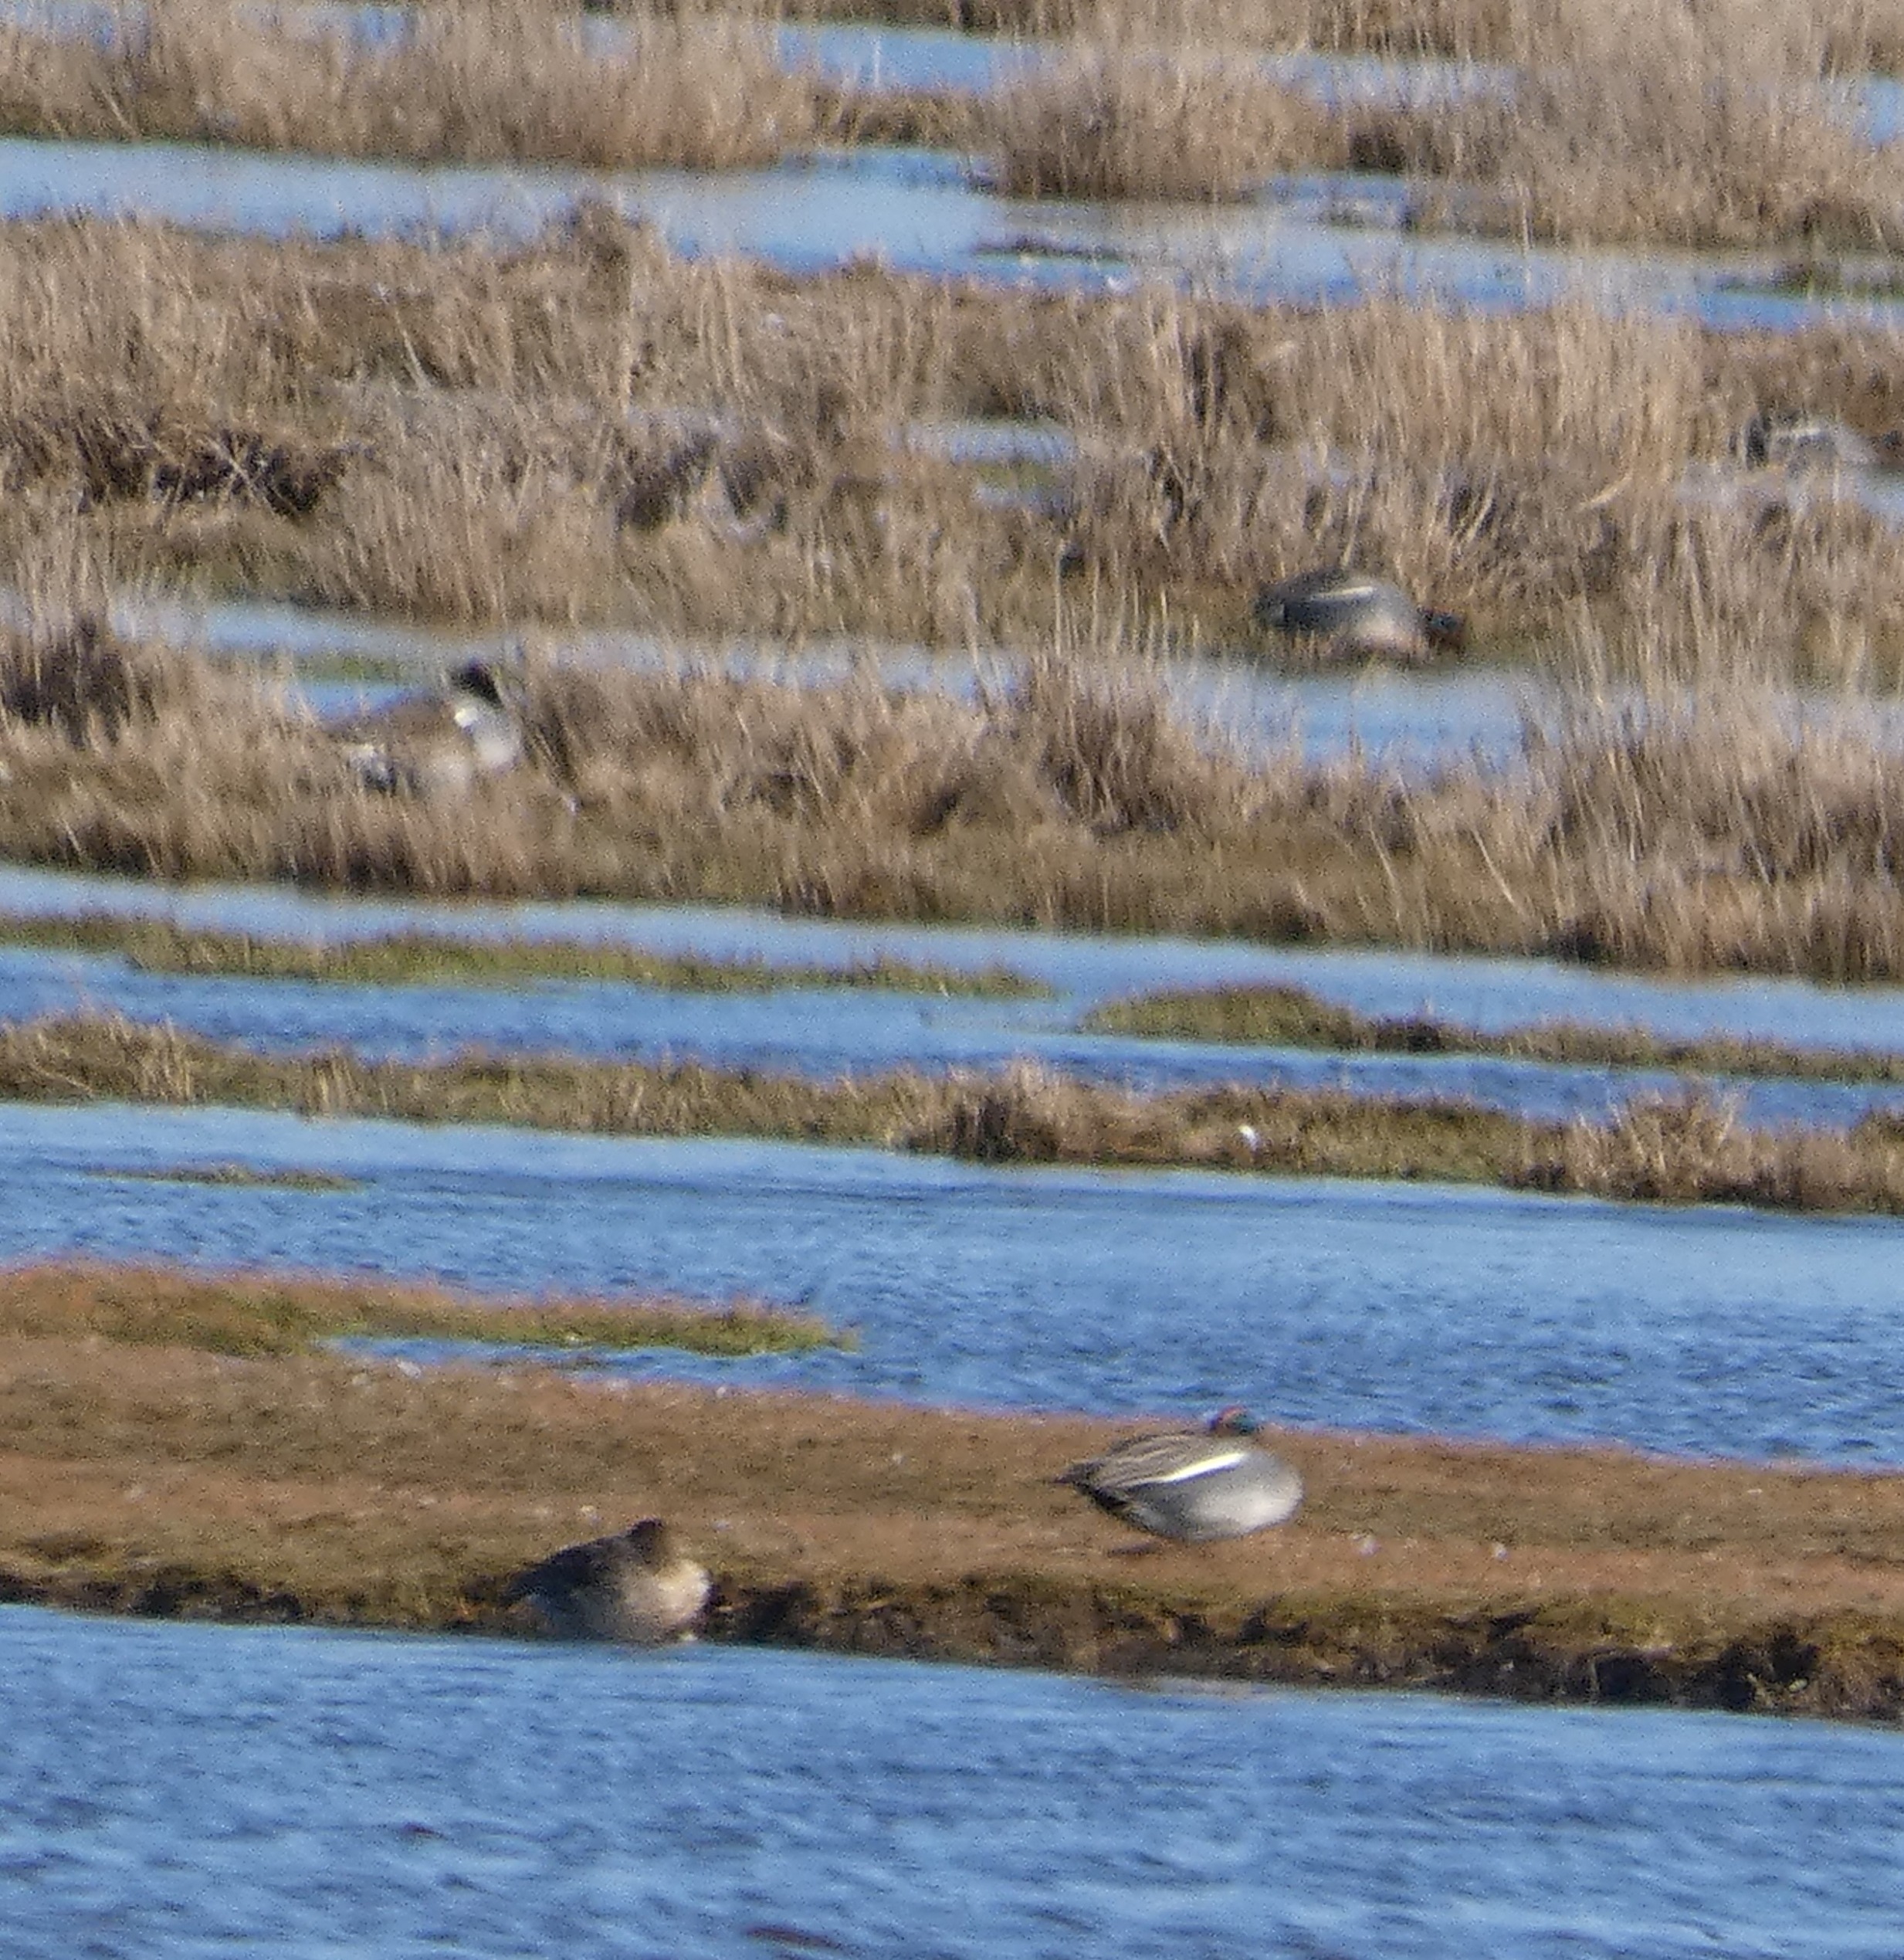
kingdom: Animalia
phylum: Chordata
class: Aves
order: Anseriformes
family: Anatidae
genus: Anas
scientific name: Anas crecca
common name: Krikand
